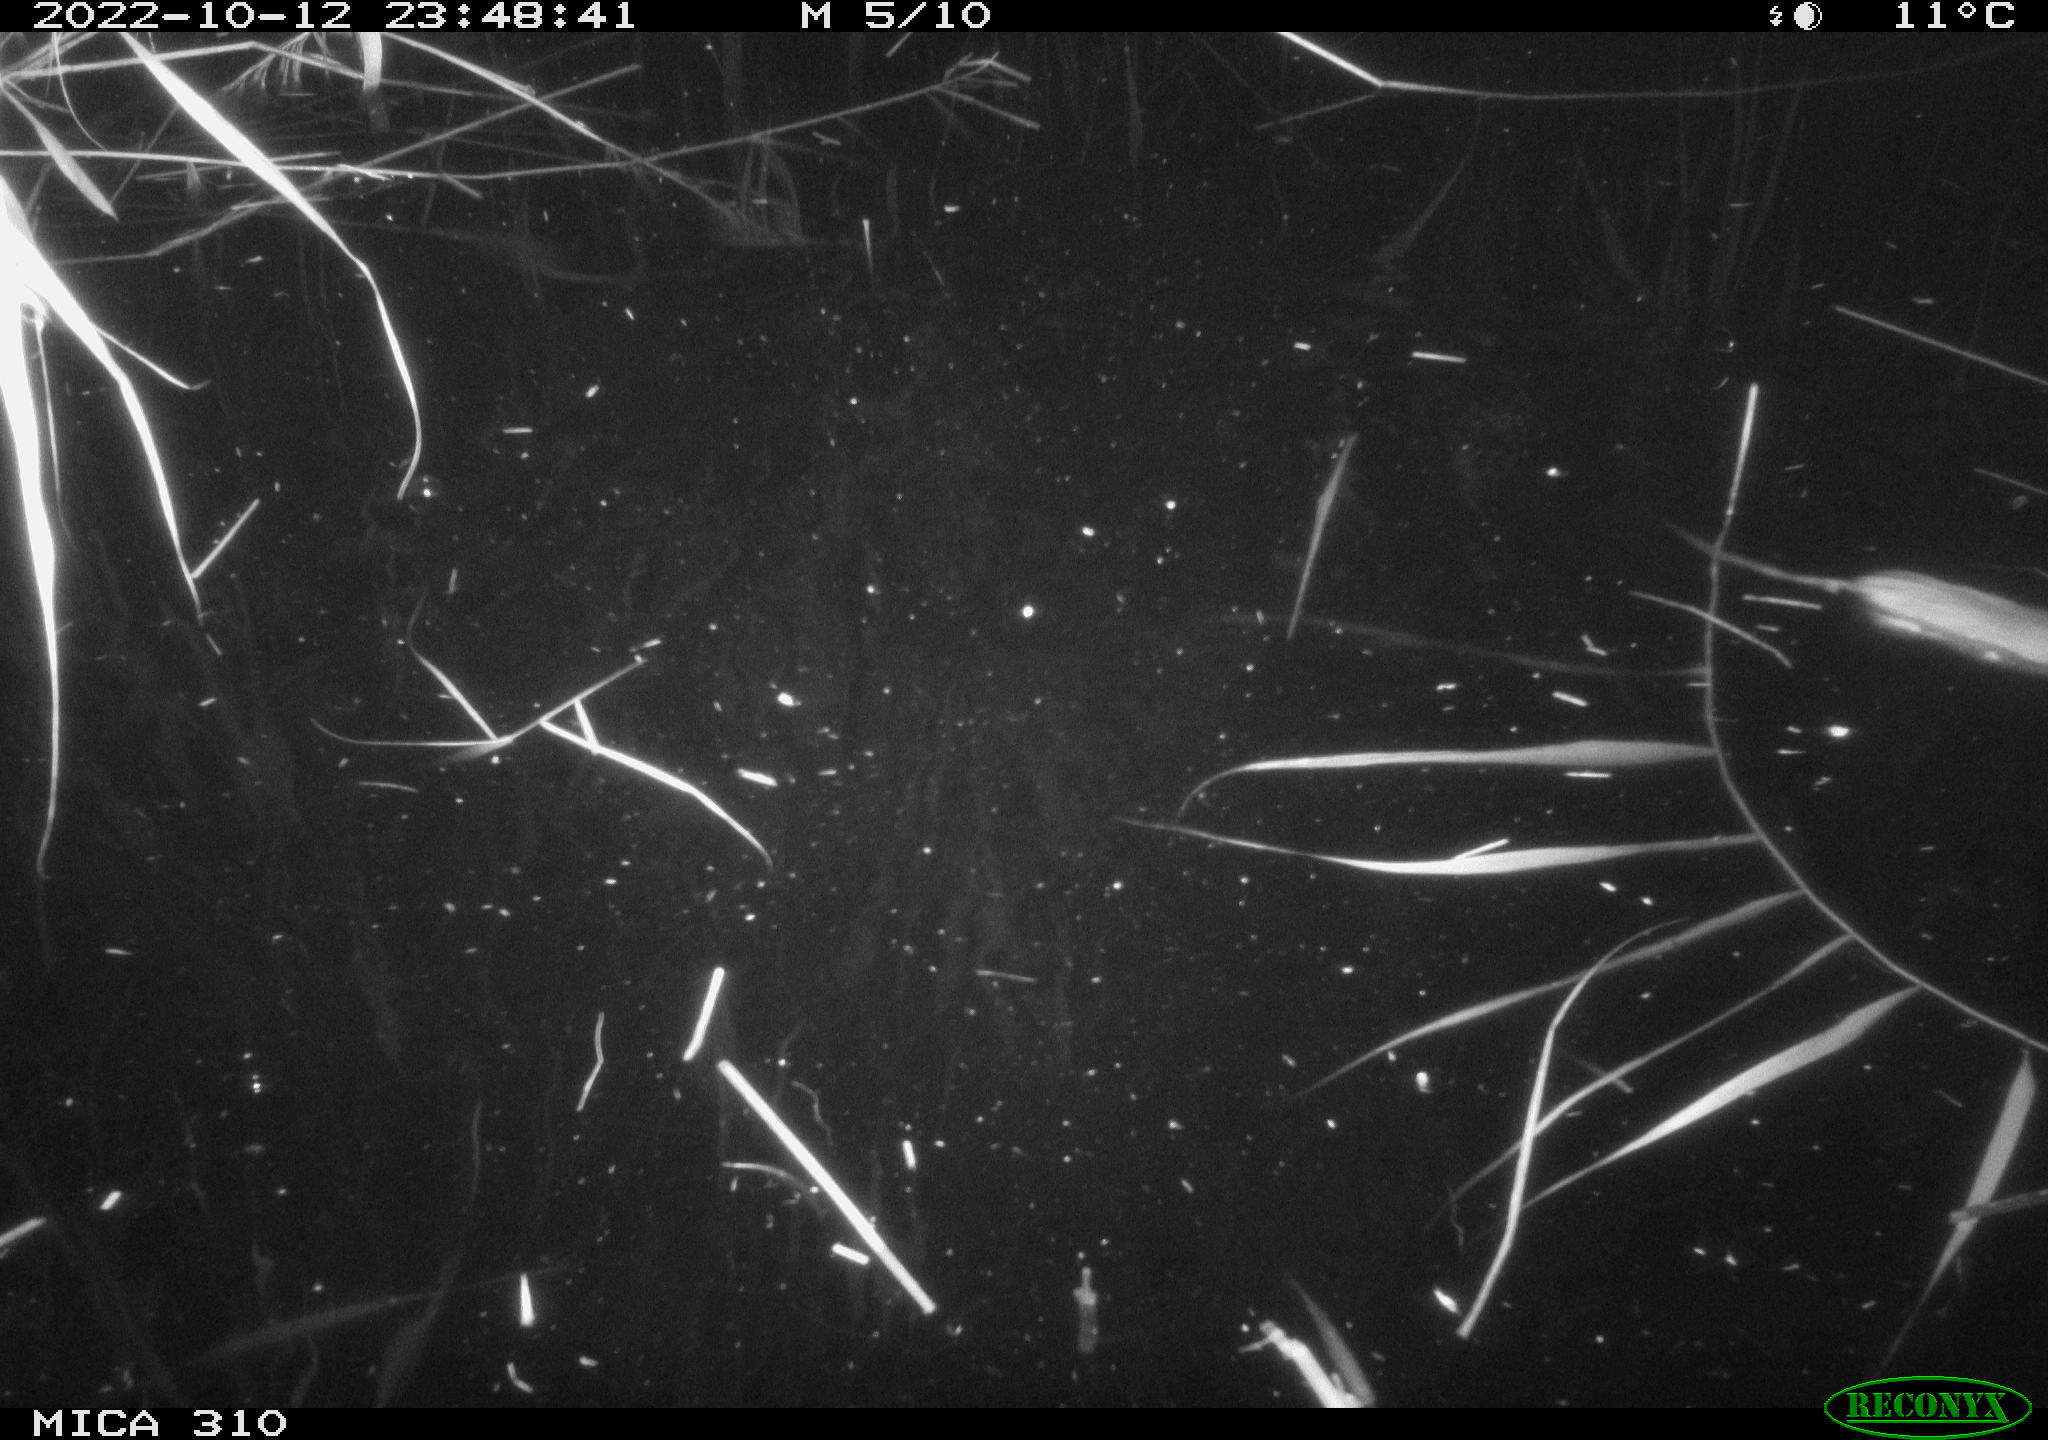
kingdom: Animalia
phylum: Chordata
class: Mammalia
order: Rodentia
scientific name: Rodentia
